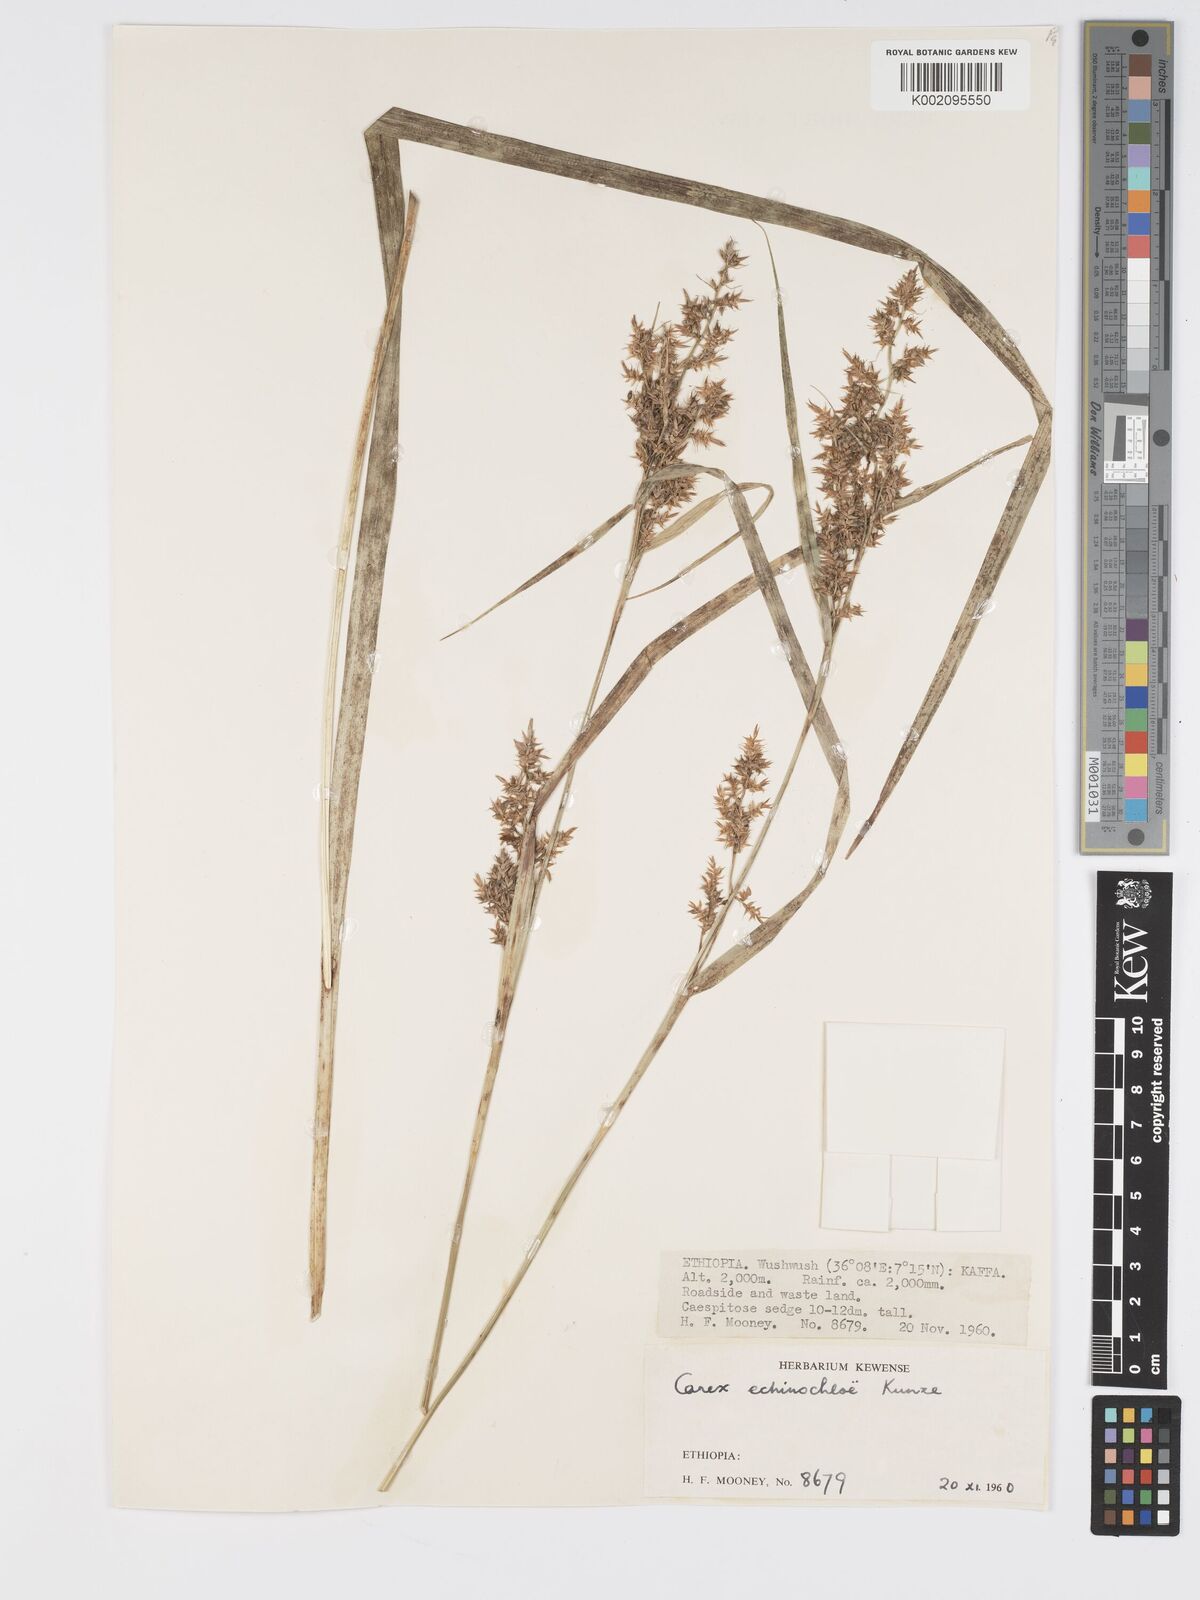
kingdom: Plantae
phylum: Tracheophyta
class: Liliopsida
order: Poales
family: Cyperaceae
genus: Carex
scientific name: Carex echinochloe
